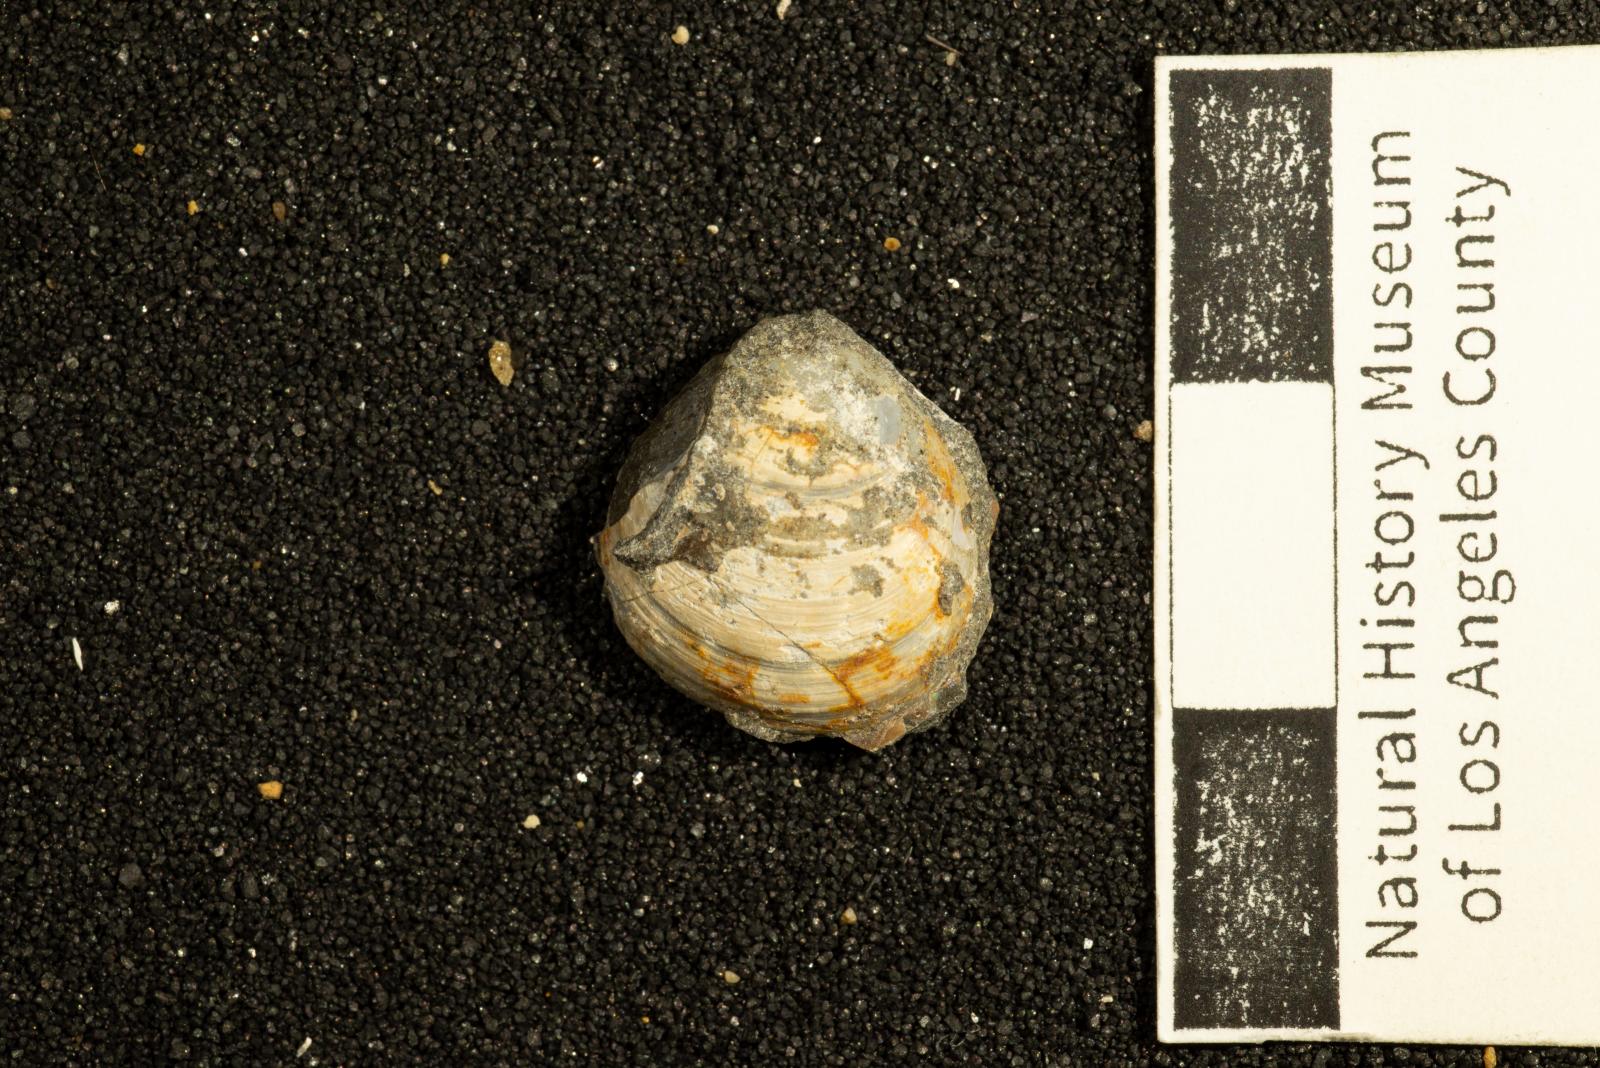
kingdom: Animalia
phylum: Mollusca
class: Bivalvia
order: Venerida
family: Ungulinidae
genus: Diplodonta
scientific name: Diplodonta
